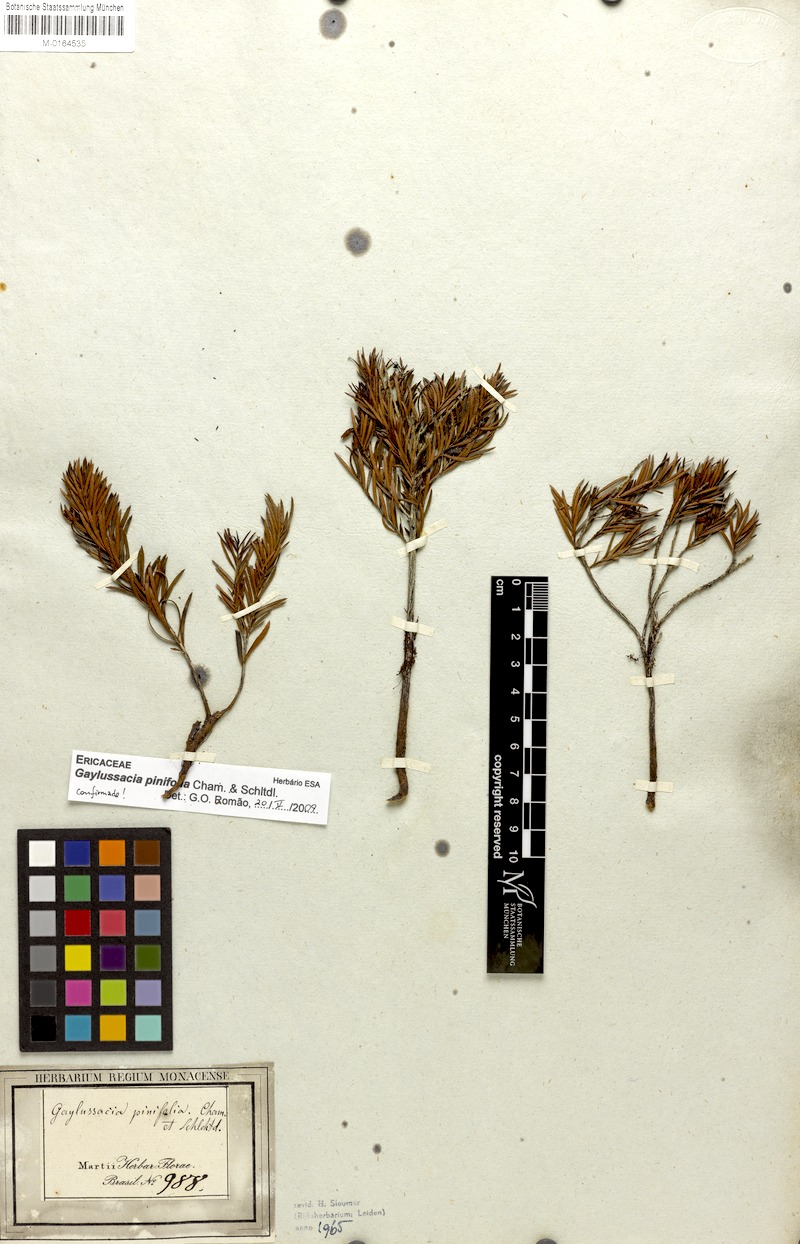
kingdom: Plantae
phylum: Tracheophyta
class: Magnoliopsida
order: Ericales
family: Ericaceae
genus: Gaylussacia
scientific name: Gaylussacia pinifolia
